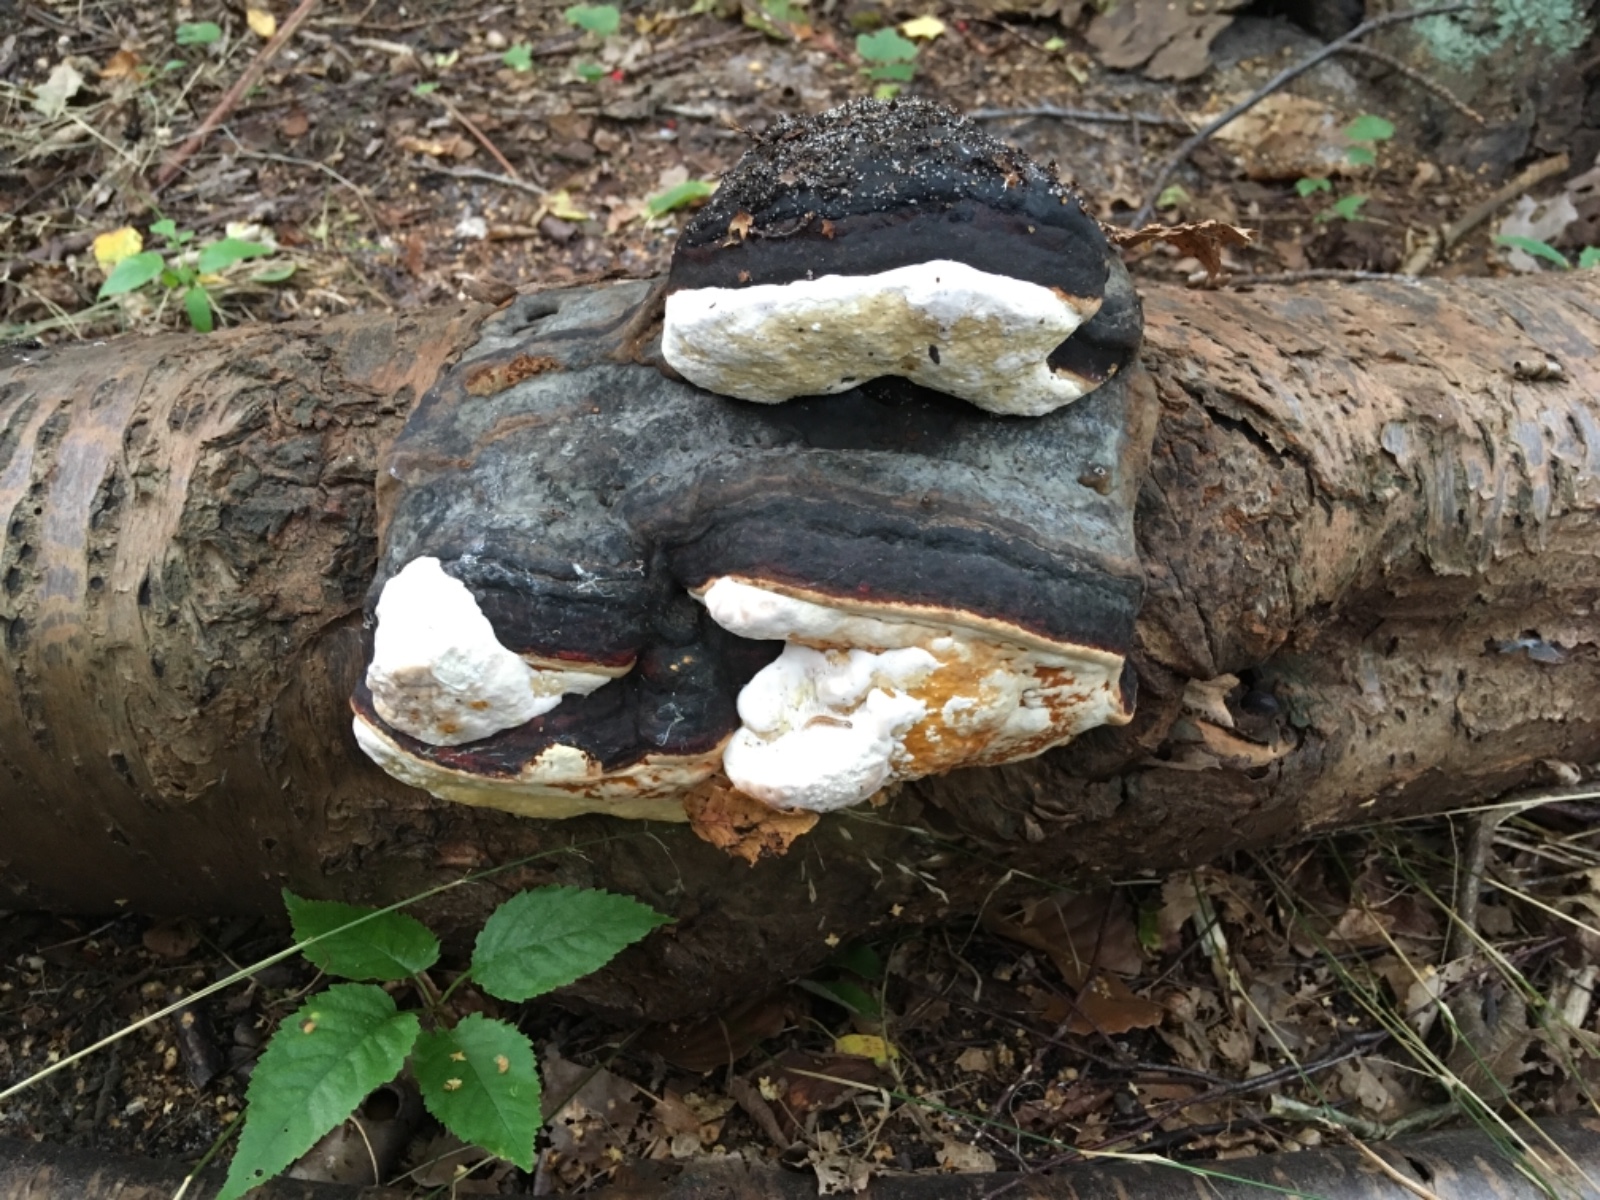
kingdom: Fungi
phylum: Basidiomycota
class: Agaricomycetes
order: Polyporales
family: Fomitopsidaceae
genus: Fomitopsis
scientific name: Fomitopsis pinicola
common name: randbæltet hovporesvamp
